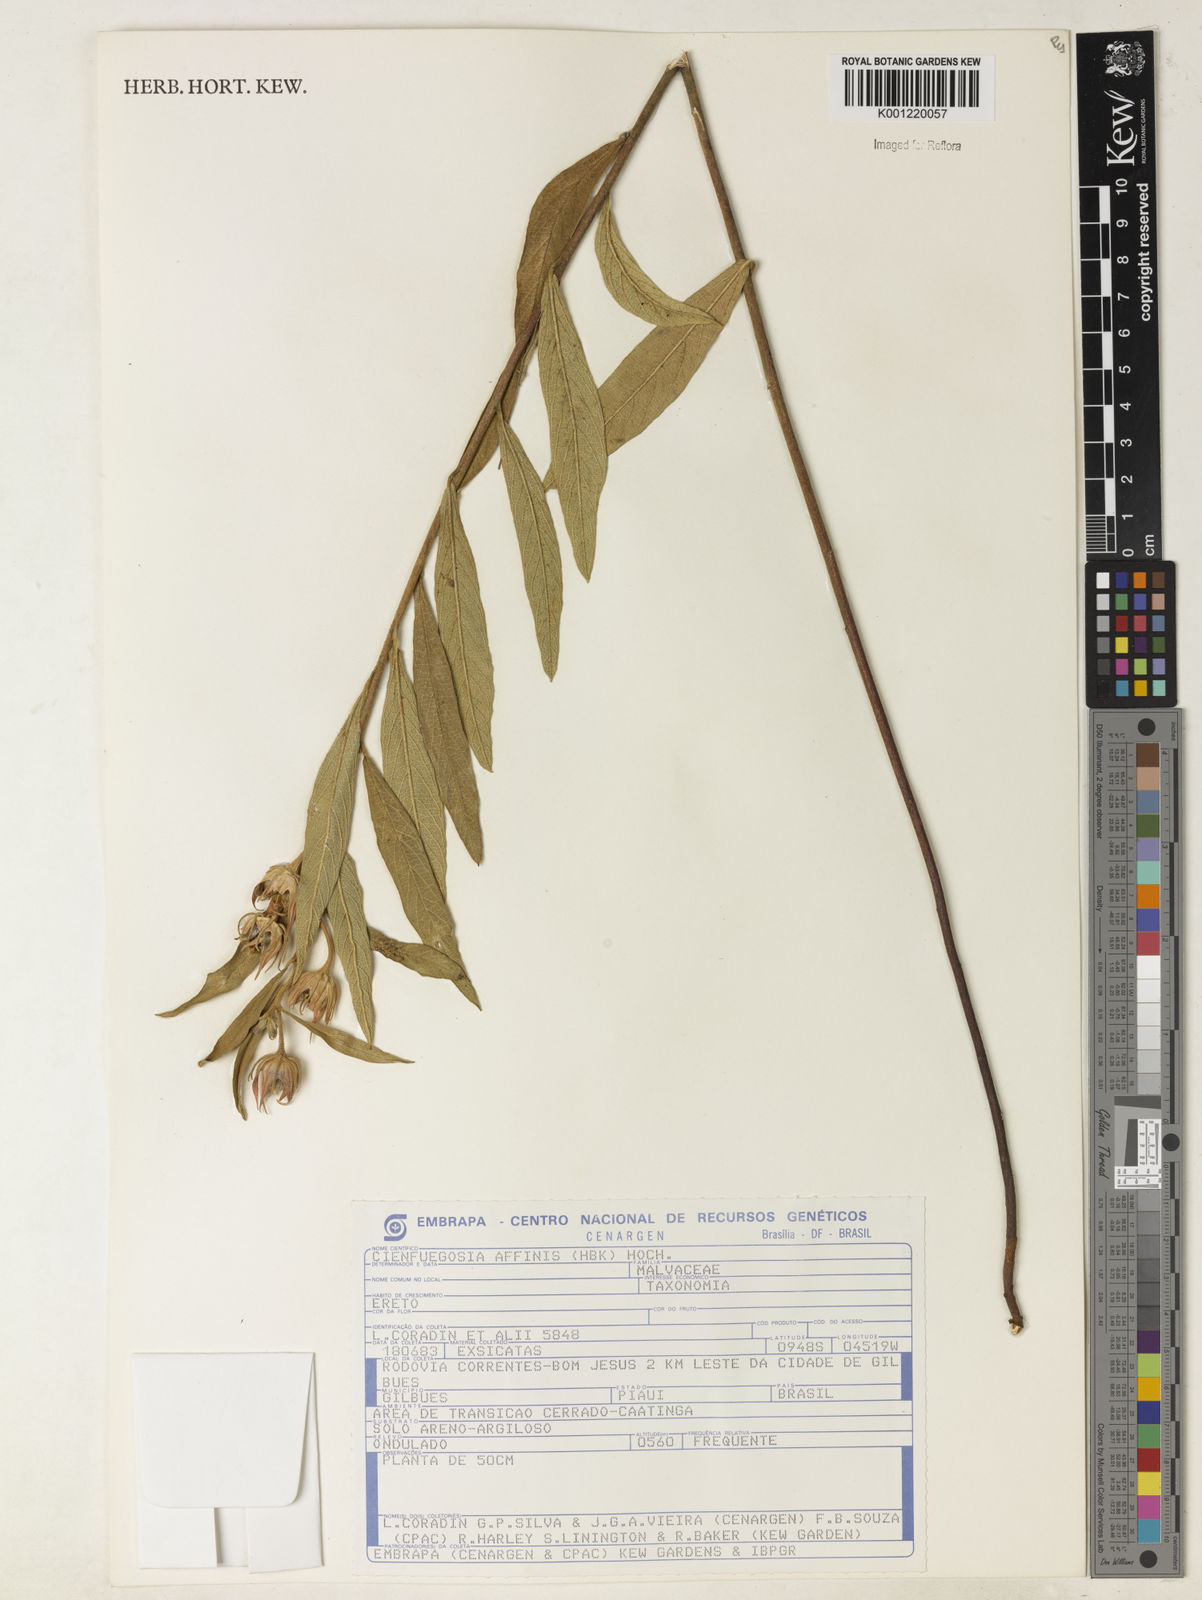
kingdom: Plantae
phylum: Tracheophyta
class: Magnoliopsida
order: Malvales
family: Malvaceae
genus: Cienfuegosia
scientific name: Cienfuegosia affinis
